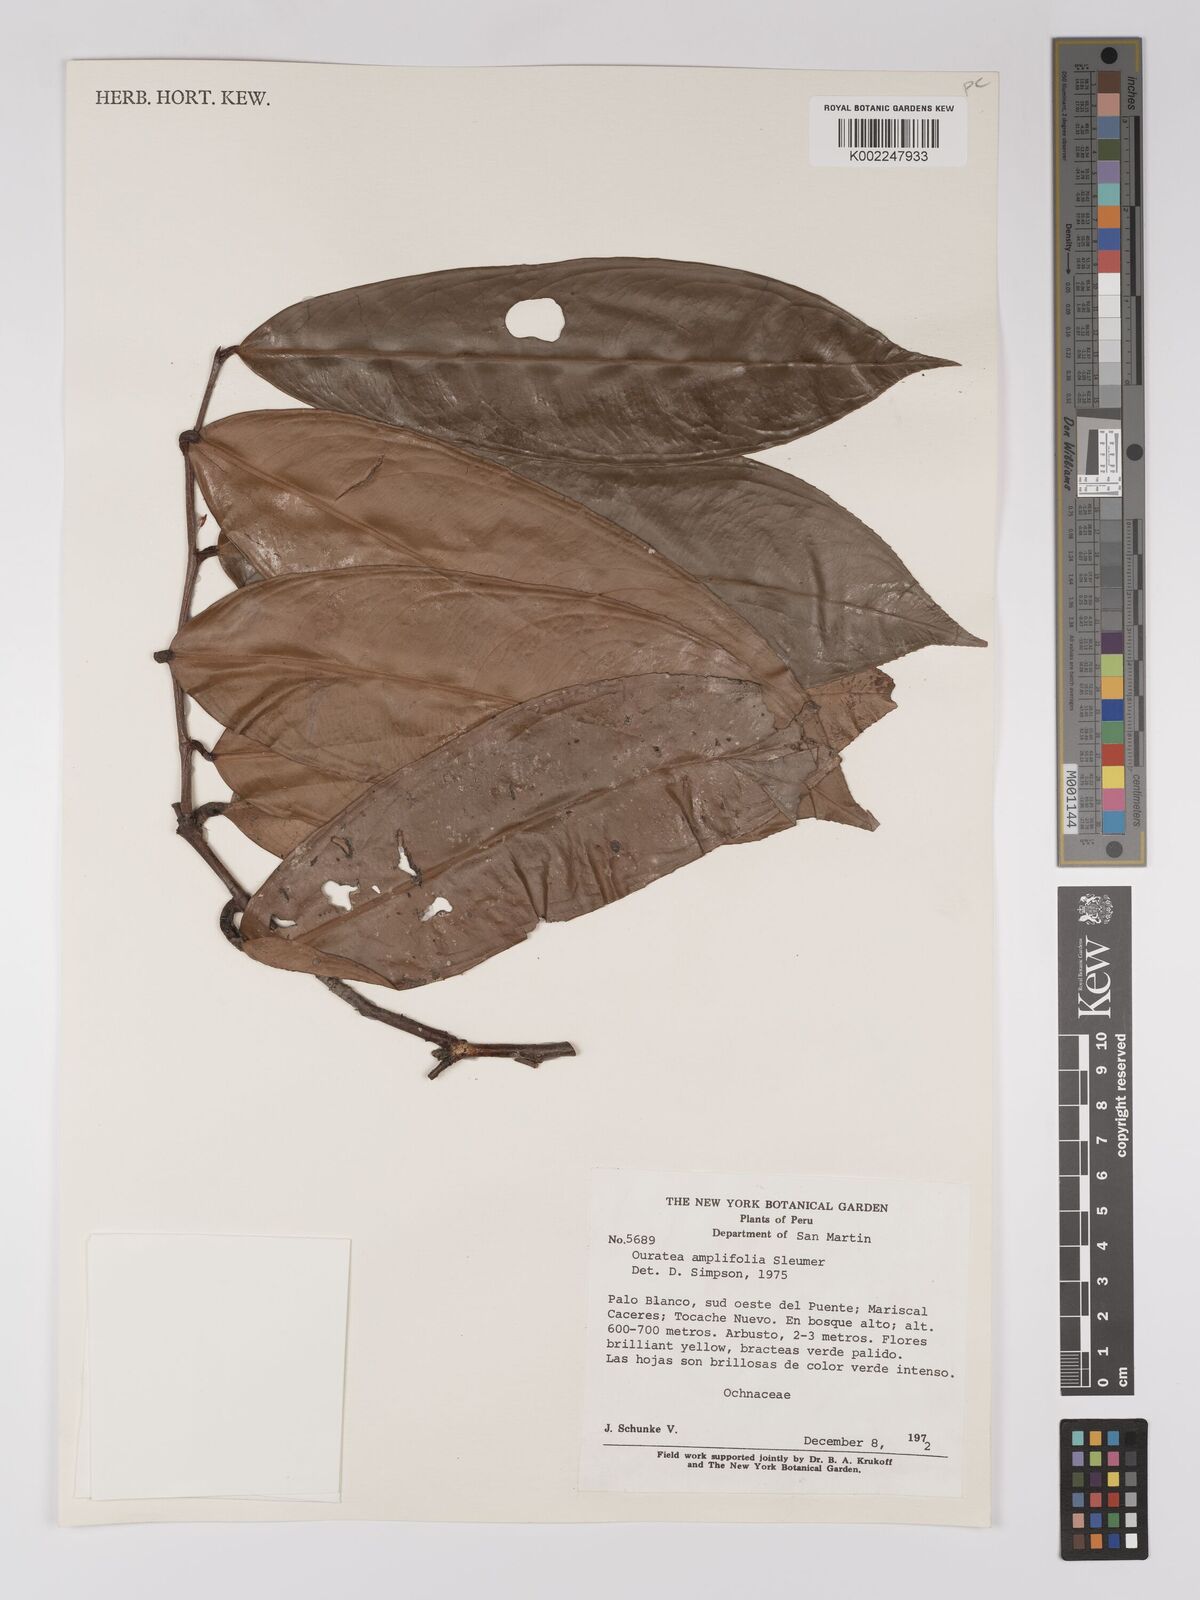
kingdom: Plantae
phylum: Tracheophyta
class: Magnoliopsida
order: Malpighiales
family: Ochnaceae
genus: Ouratea
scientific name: Ouratea amplifolia
